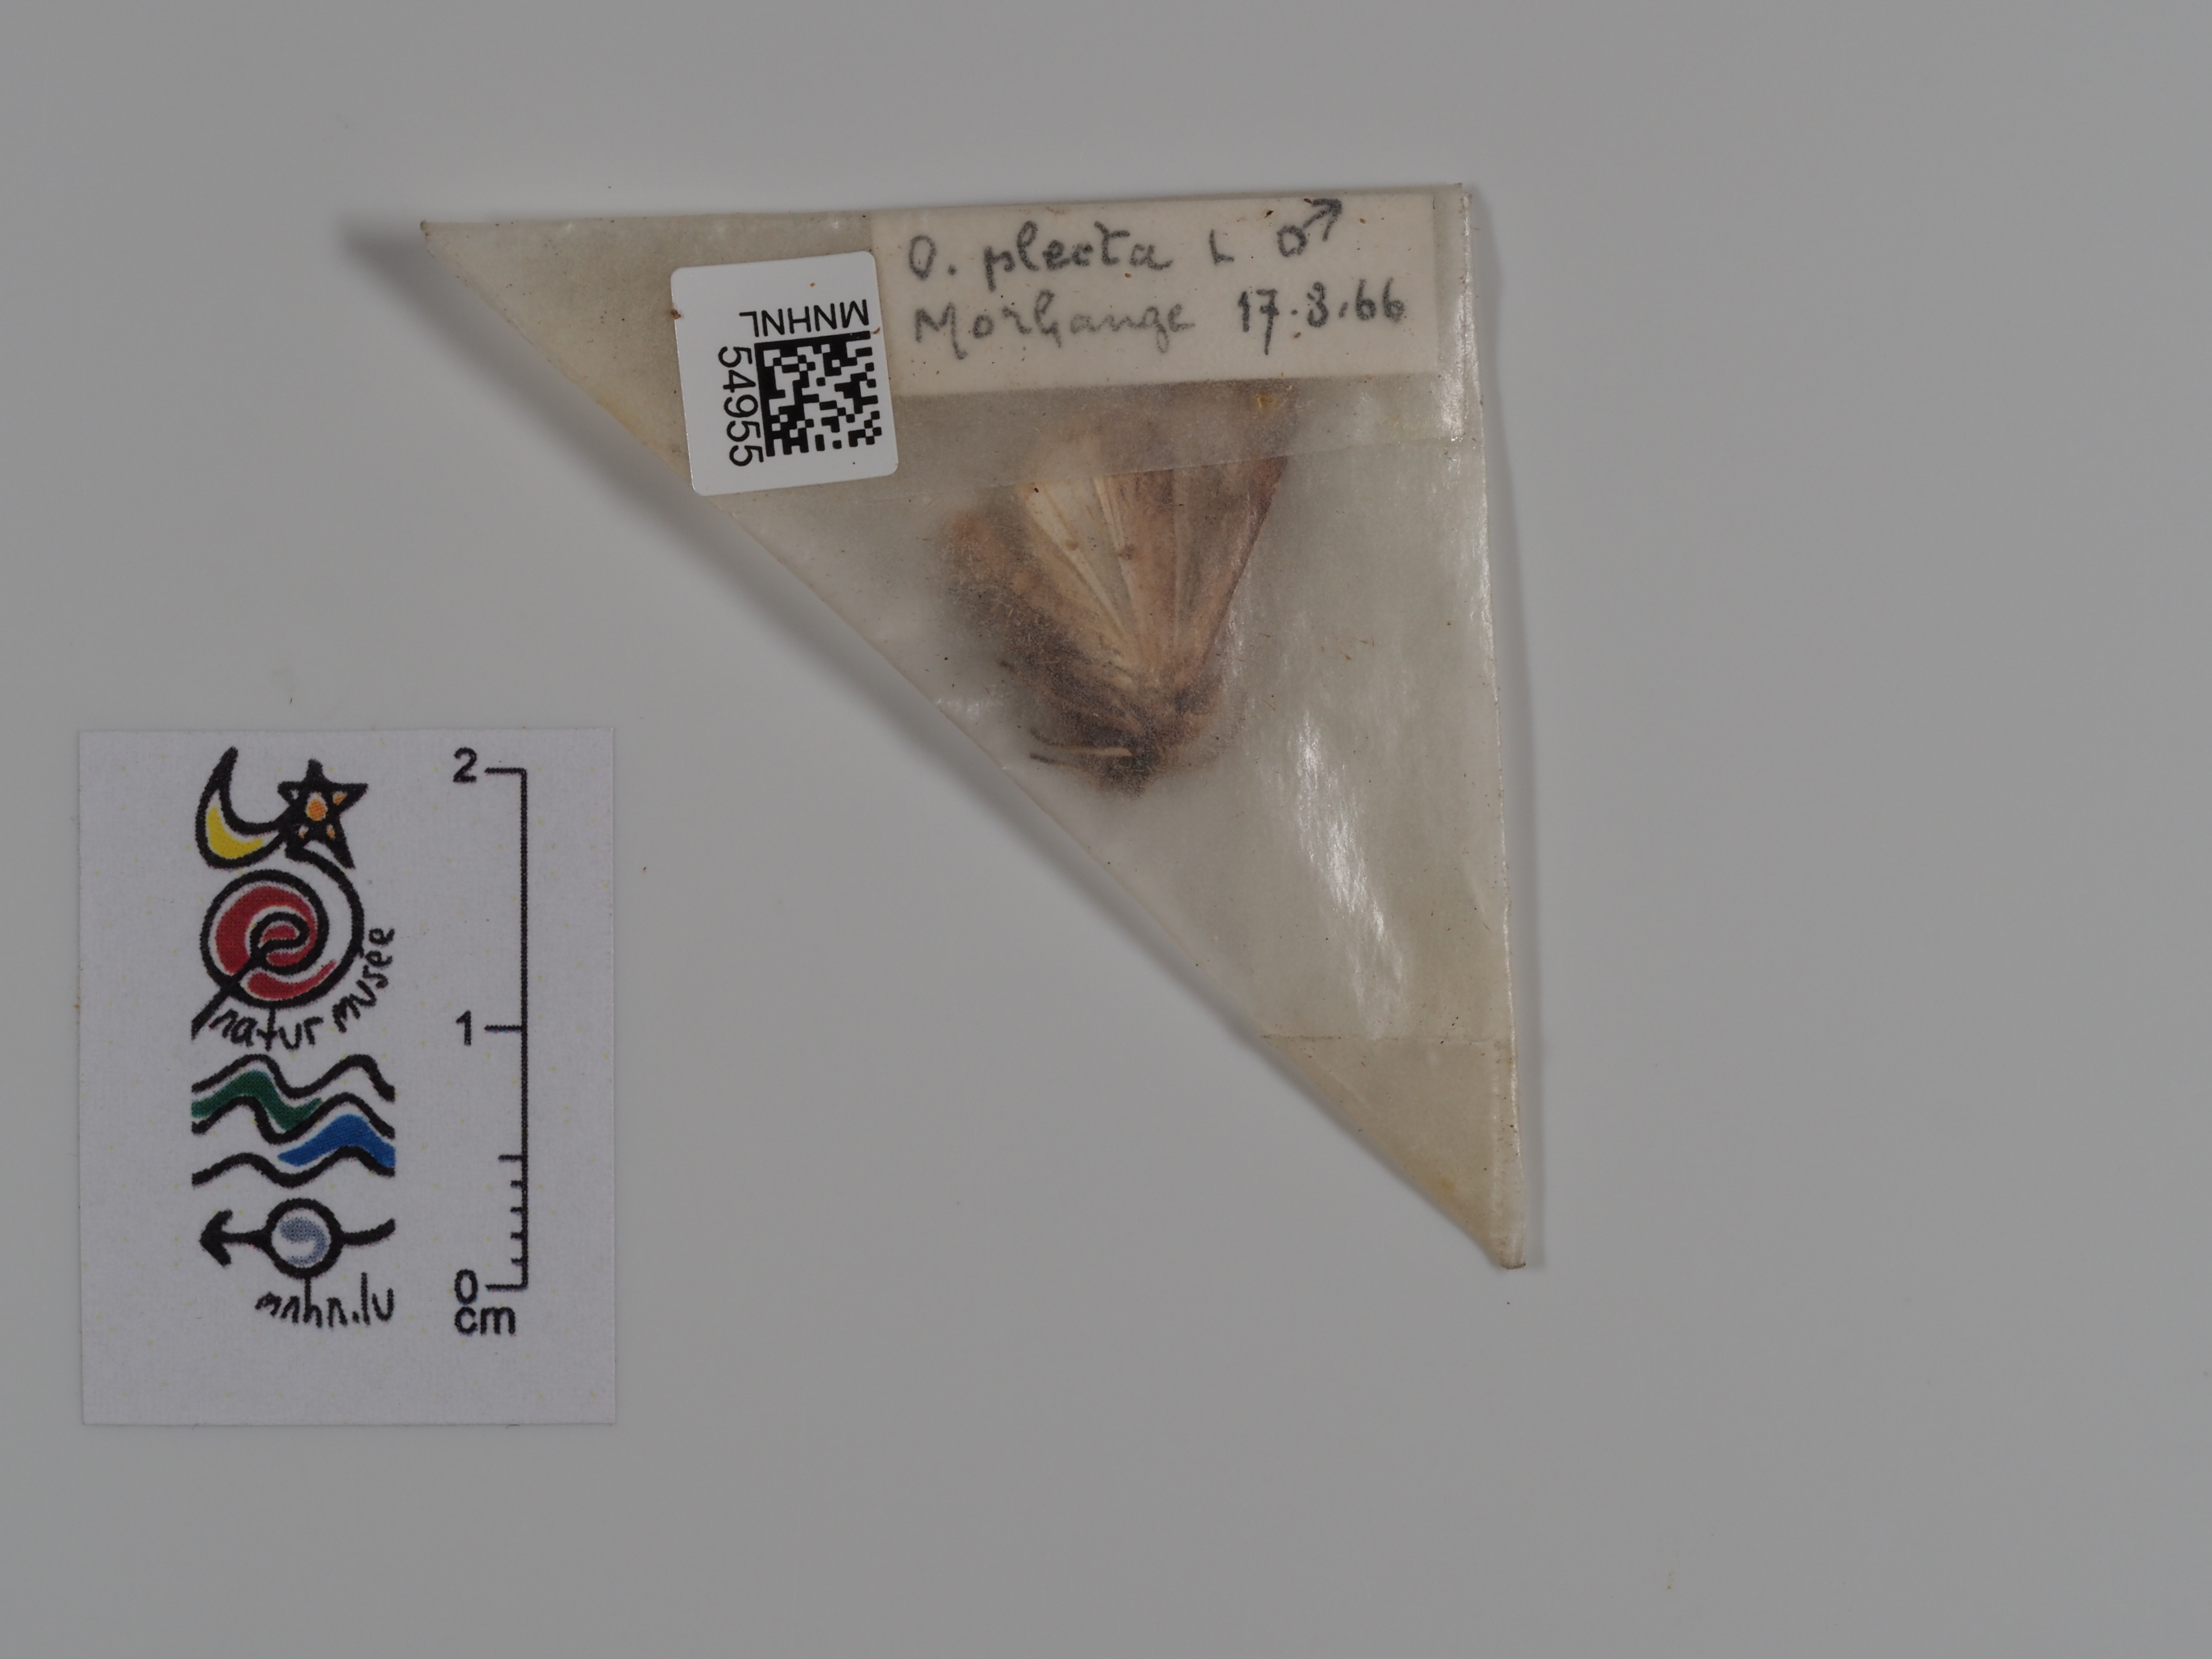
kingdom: Animalia
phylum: Arthropoda
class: Insecta
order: Lepidoptera
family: Noctuidae
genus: Ochropleura
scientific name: Ochropleura plecta
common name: Flame shoulder
